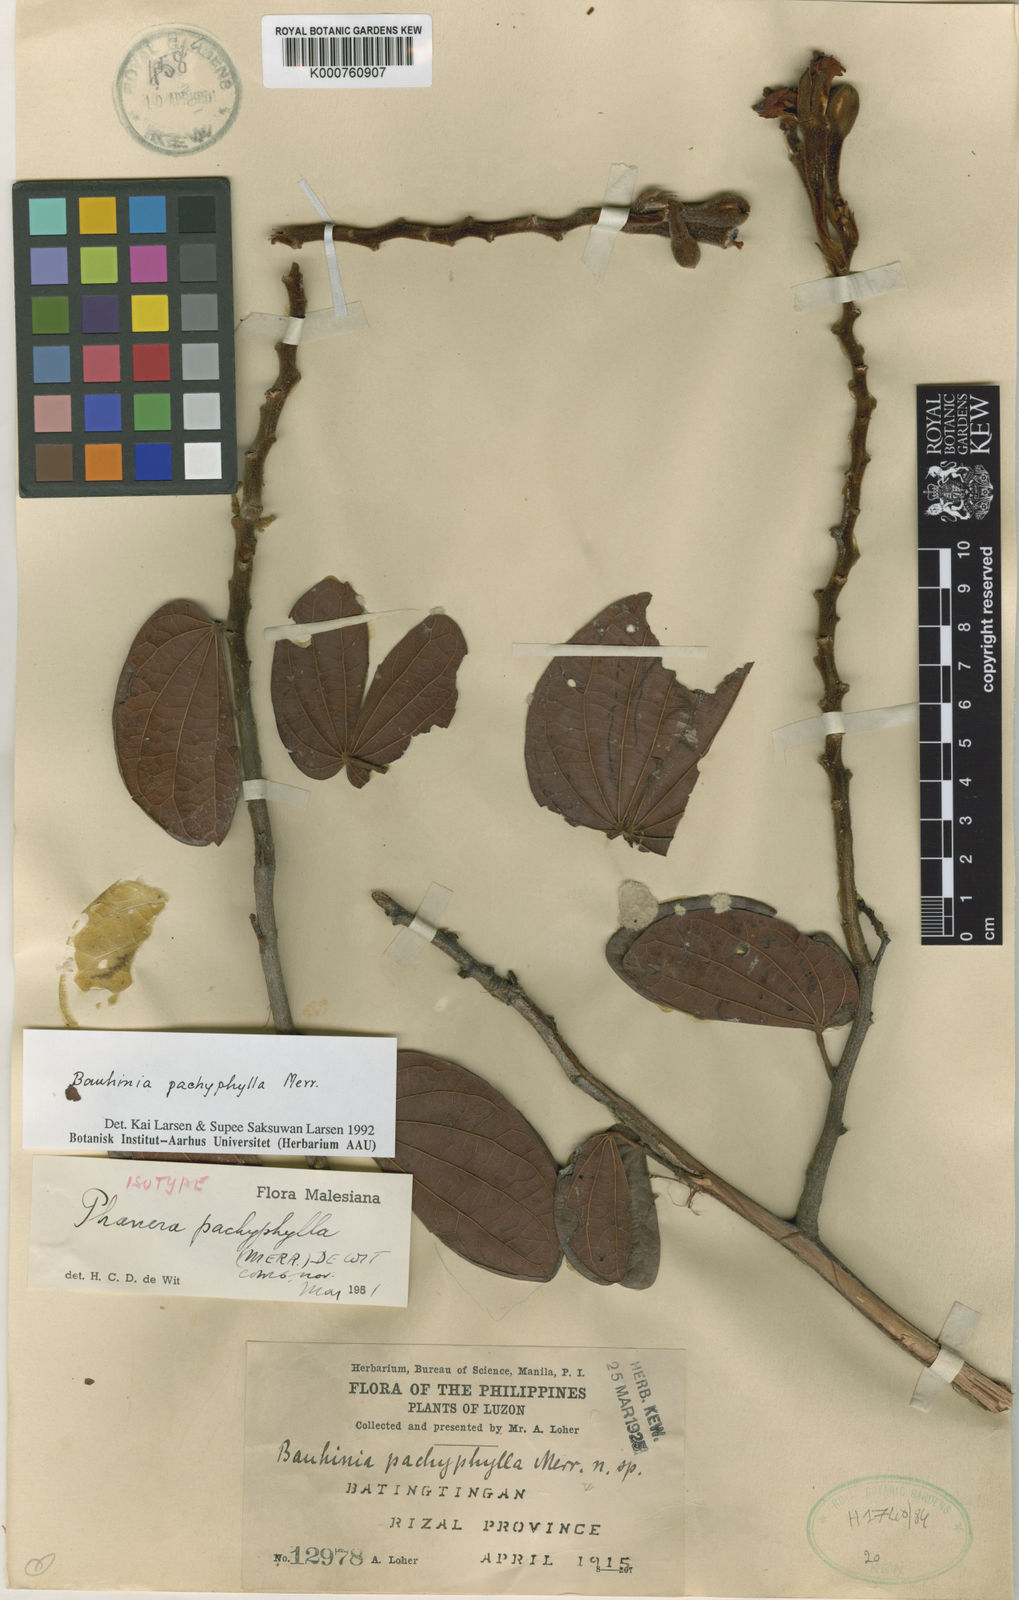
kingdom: Plantae
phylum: Tracheophyta
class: Magnoliopsida
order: Fabales
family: Fabaceae
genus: Phanera
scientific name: Phanera pachyphylla
